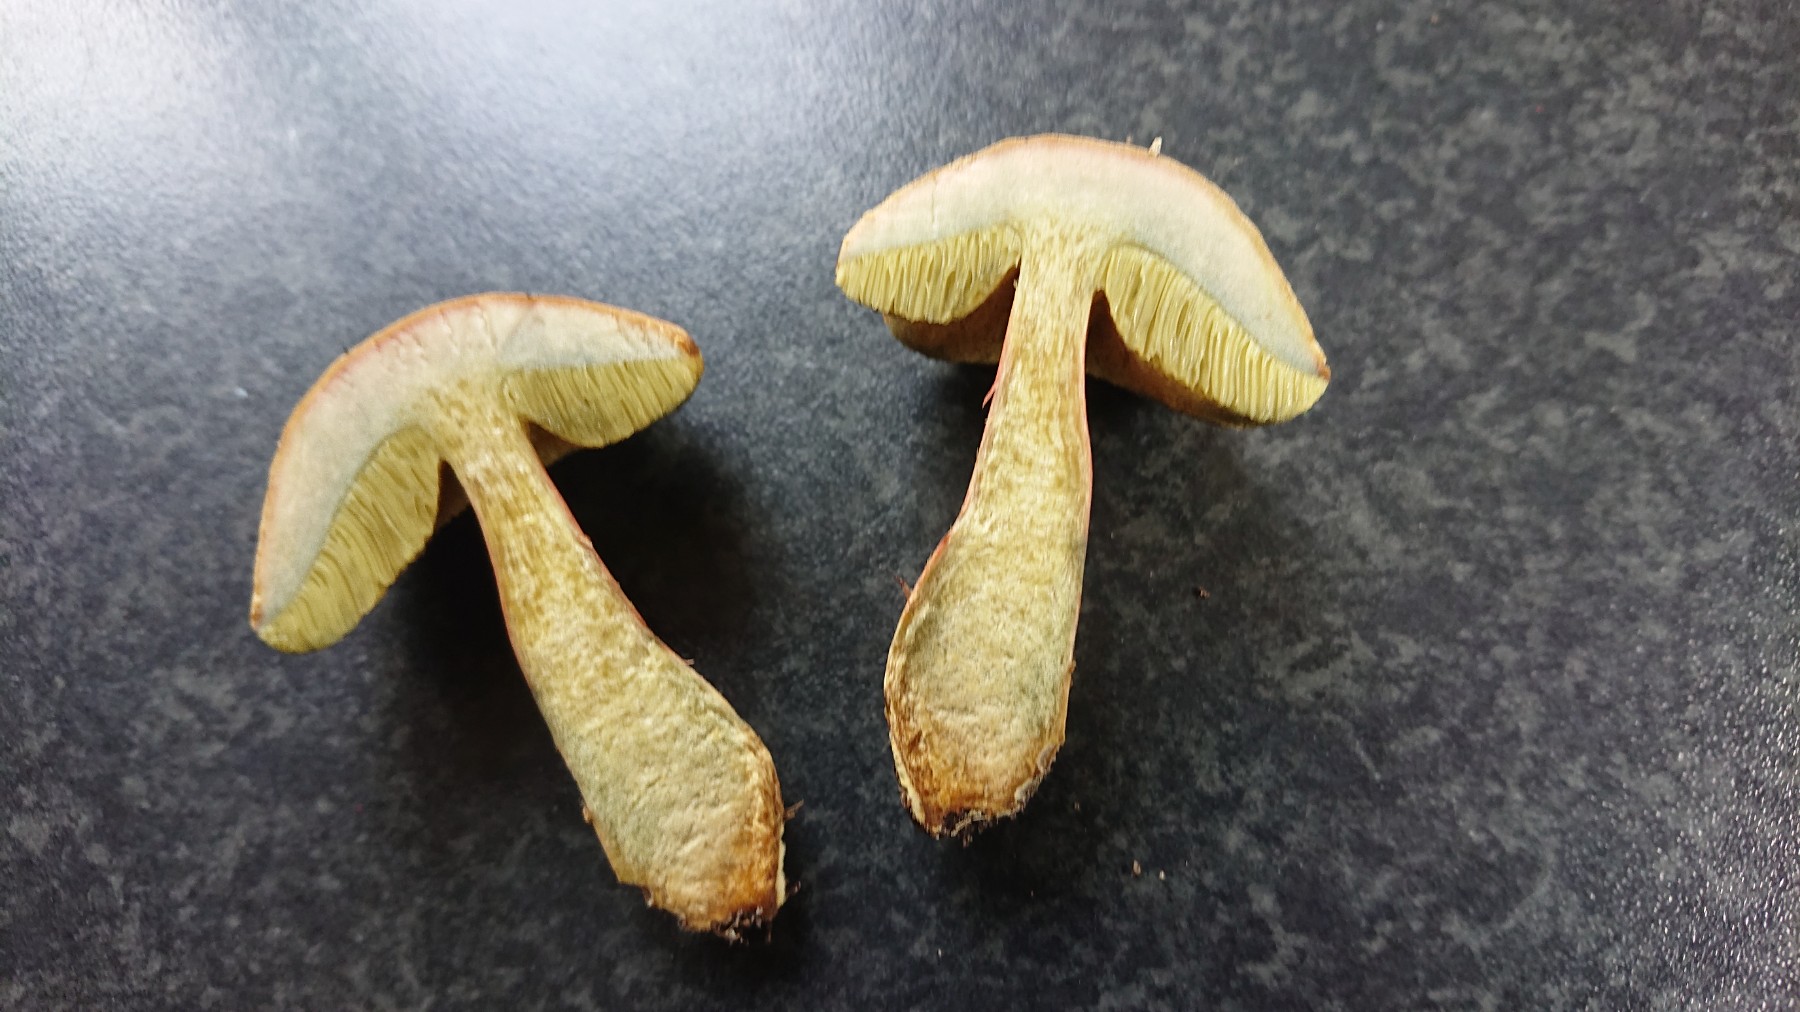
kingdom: Fungi
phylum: Basidiomycota
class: Agaricomycetes
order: Boletales
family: Boletaceae
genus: Hortiboletus
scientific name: Hortiboletus bubalinus
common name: aurora-rørhat
